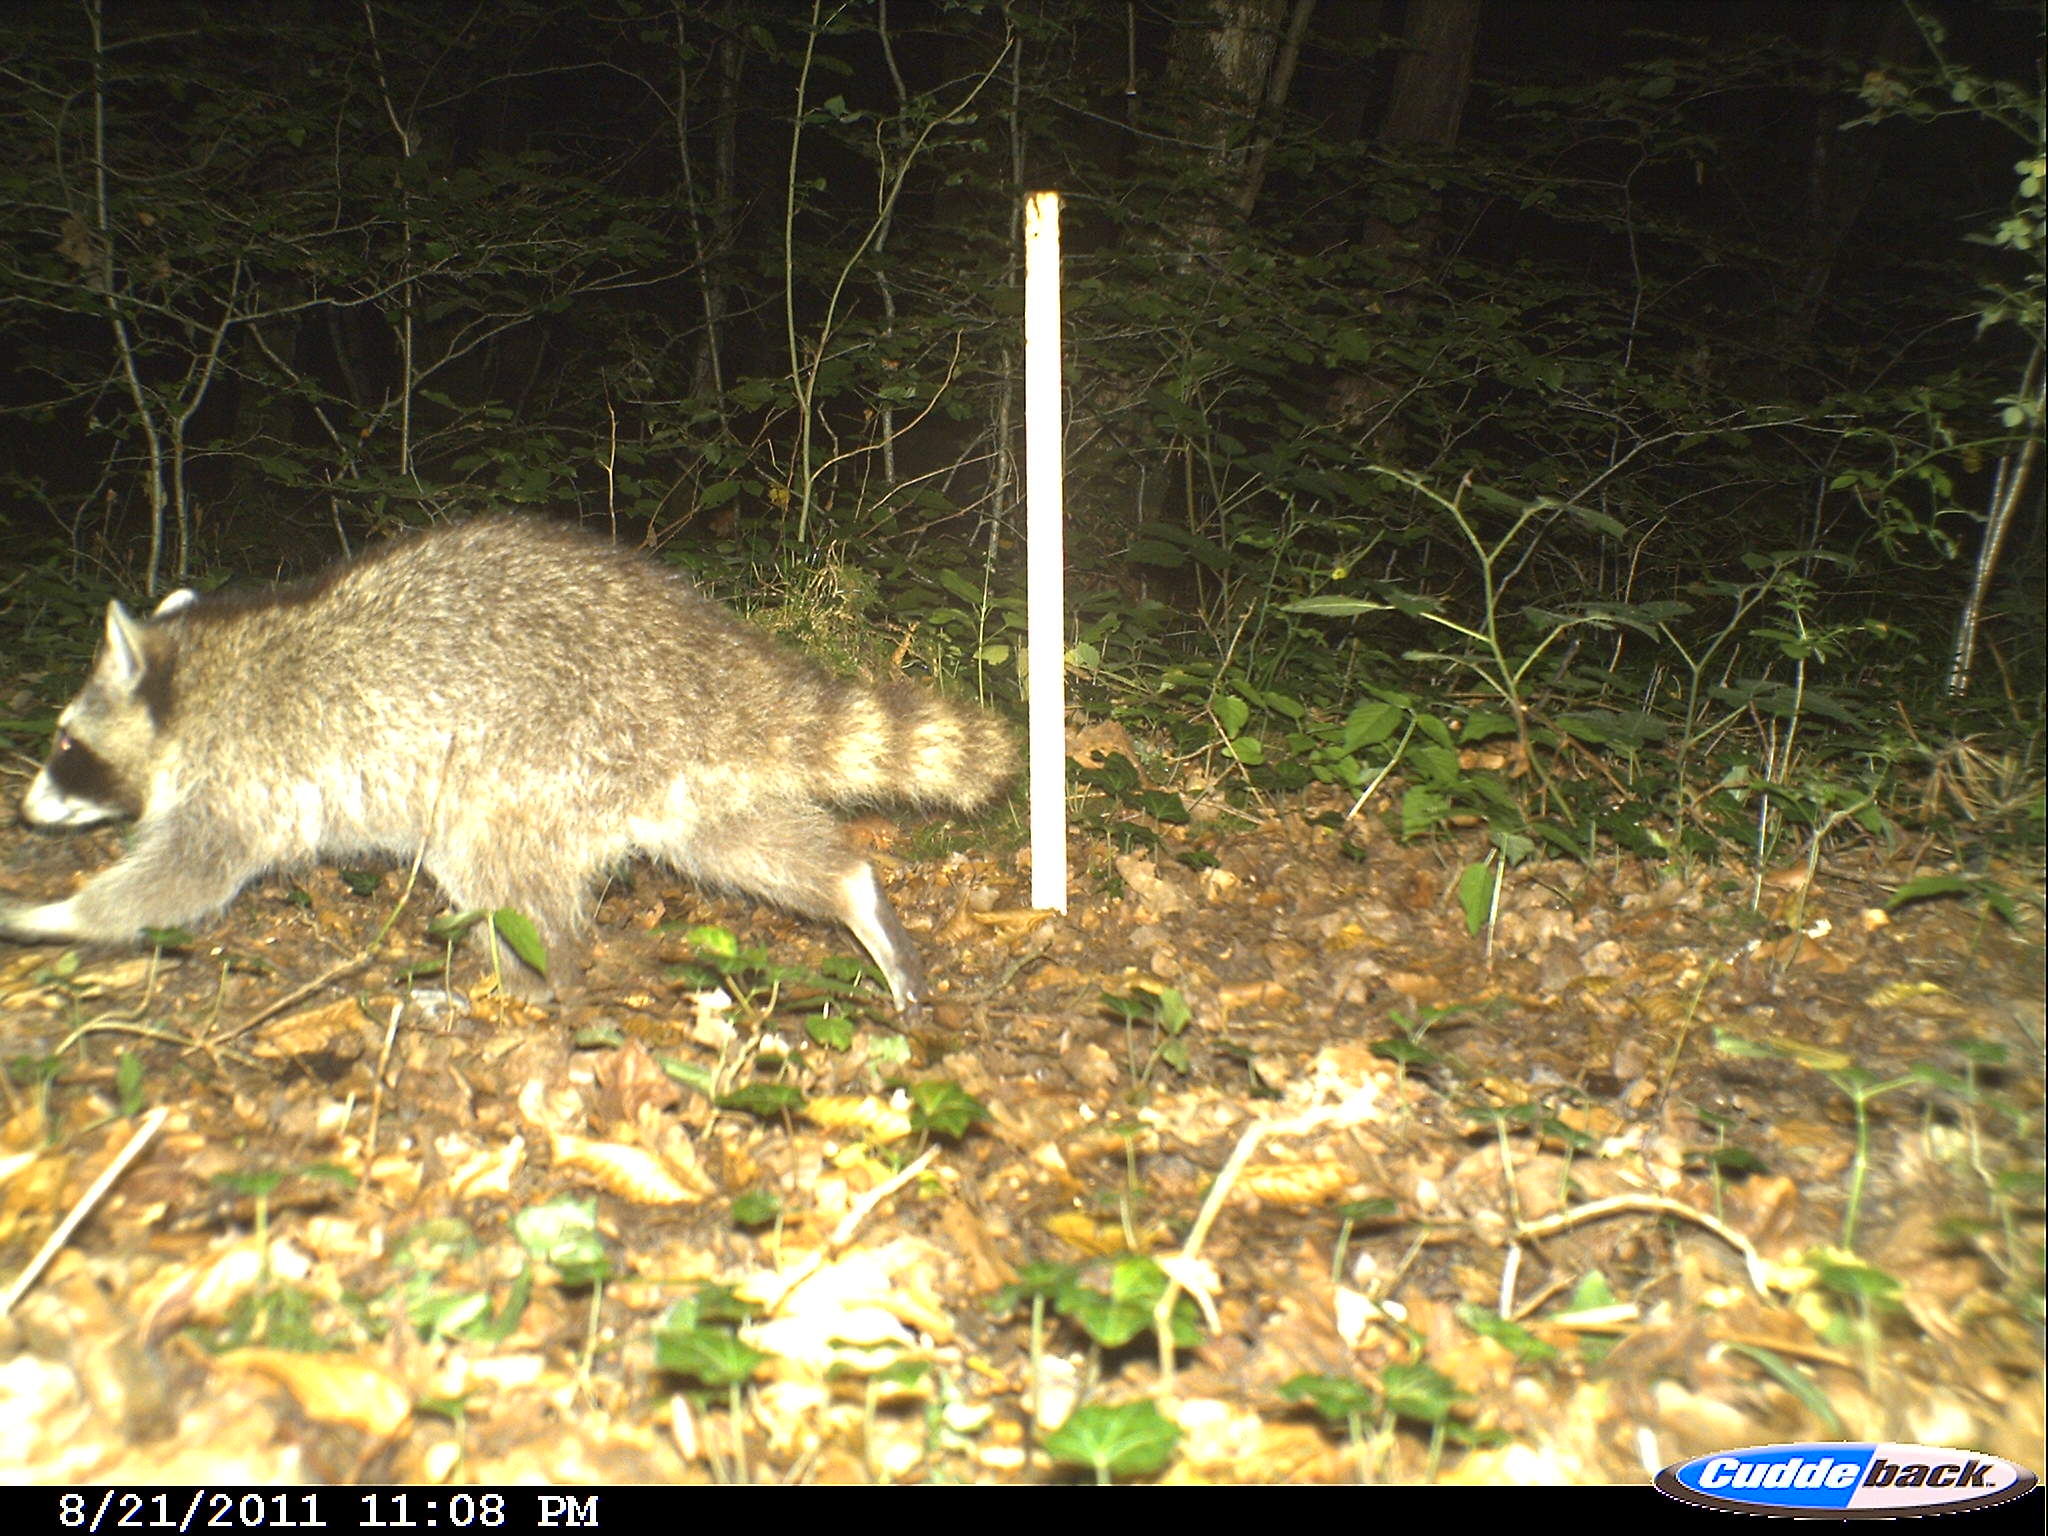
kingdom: Animalia
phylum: Chordata
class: Mammalia
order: Carnivora
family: Procyonidae
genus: Procyon
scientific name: Procyon lotor
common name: Raccoon
